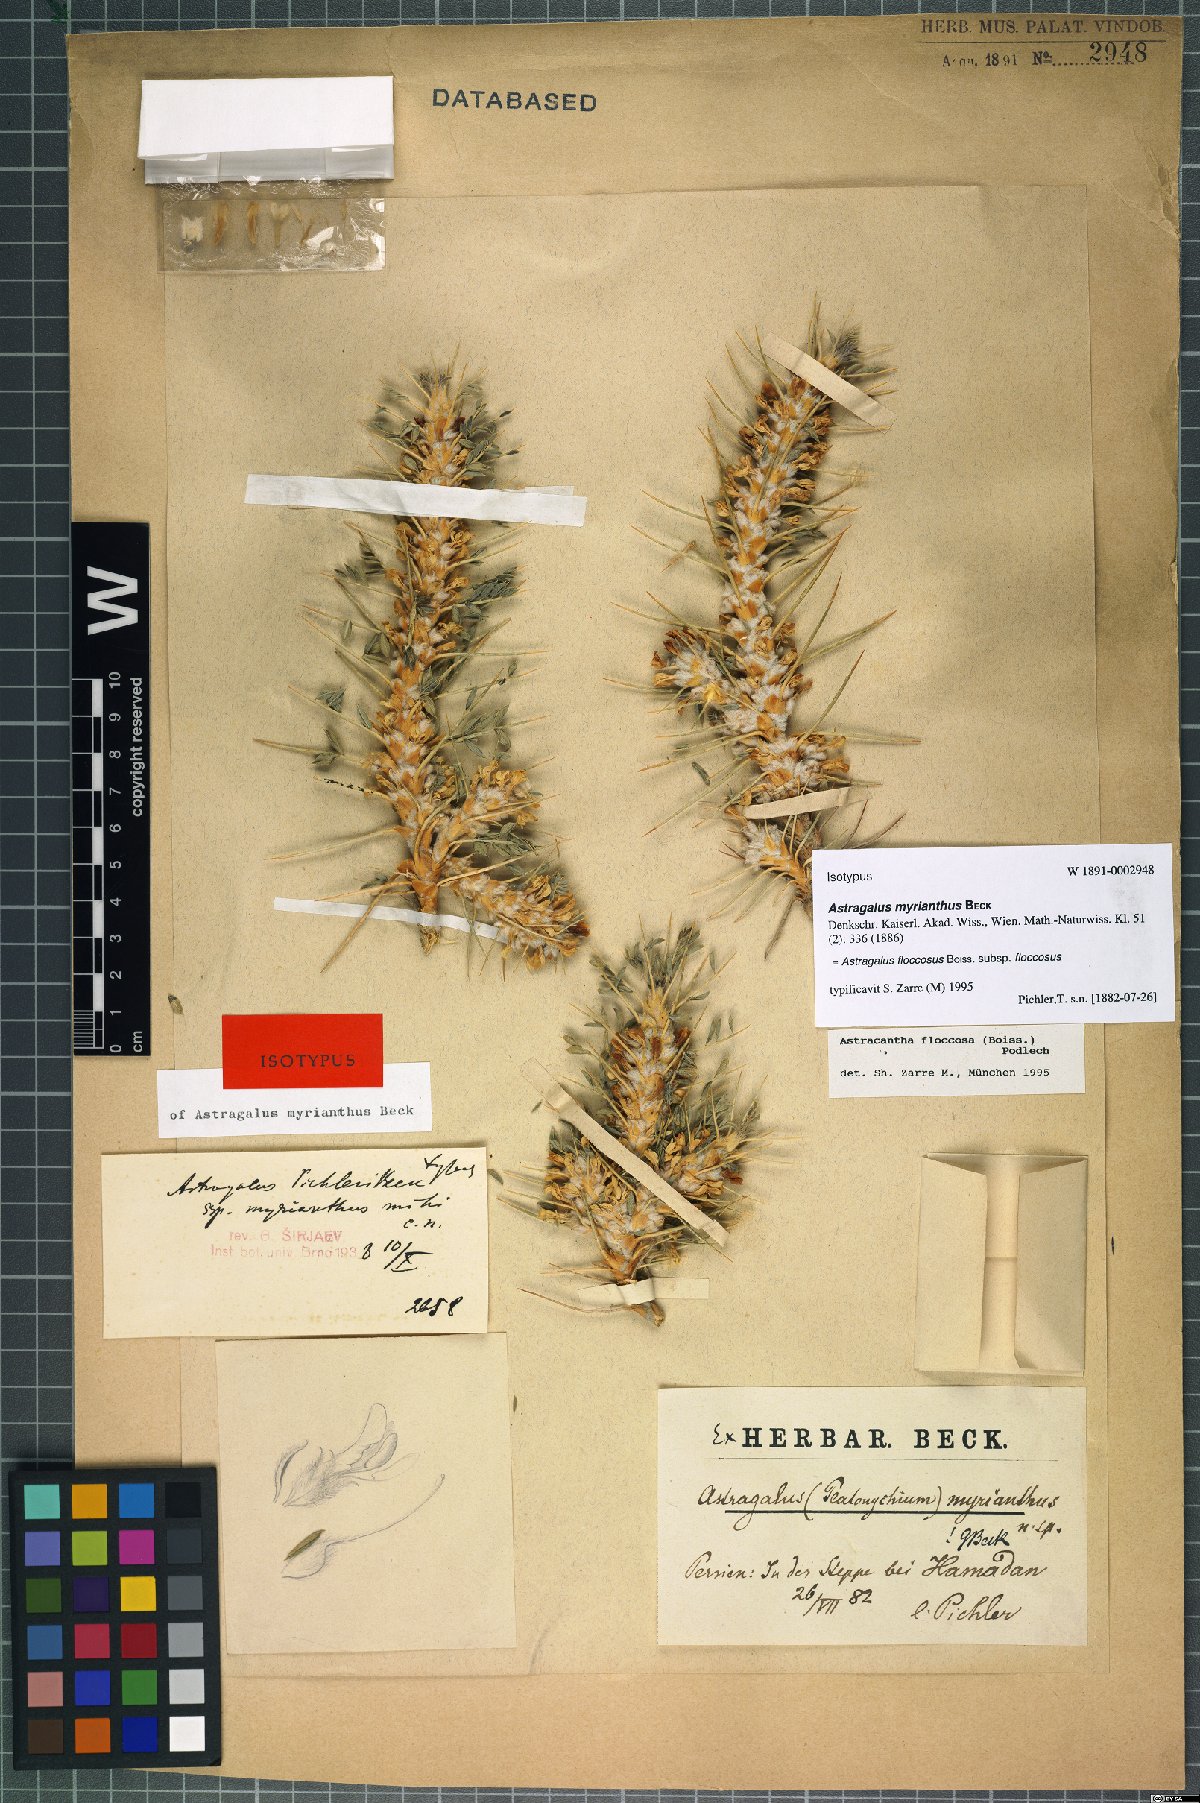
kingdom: Plantae
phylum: Tracheophyta
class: Magnoliopsida
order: Fabales
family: Fabaceae
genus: Astragalus
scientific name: Astragalus floccosus
